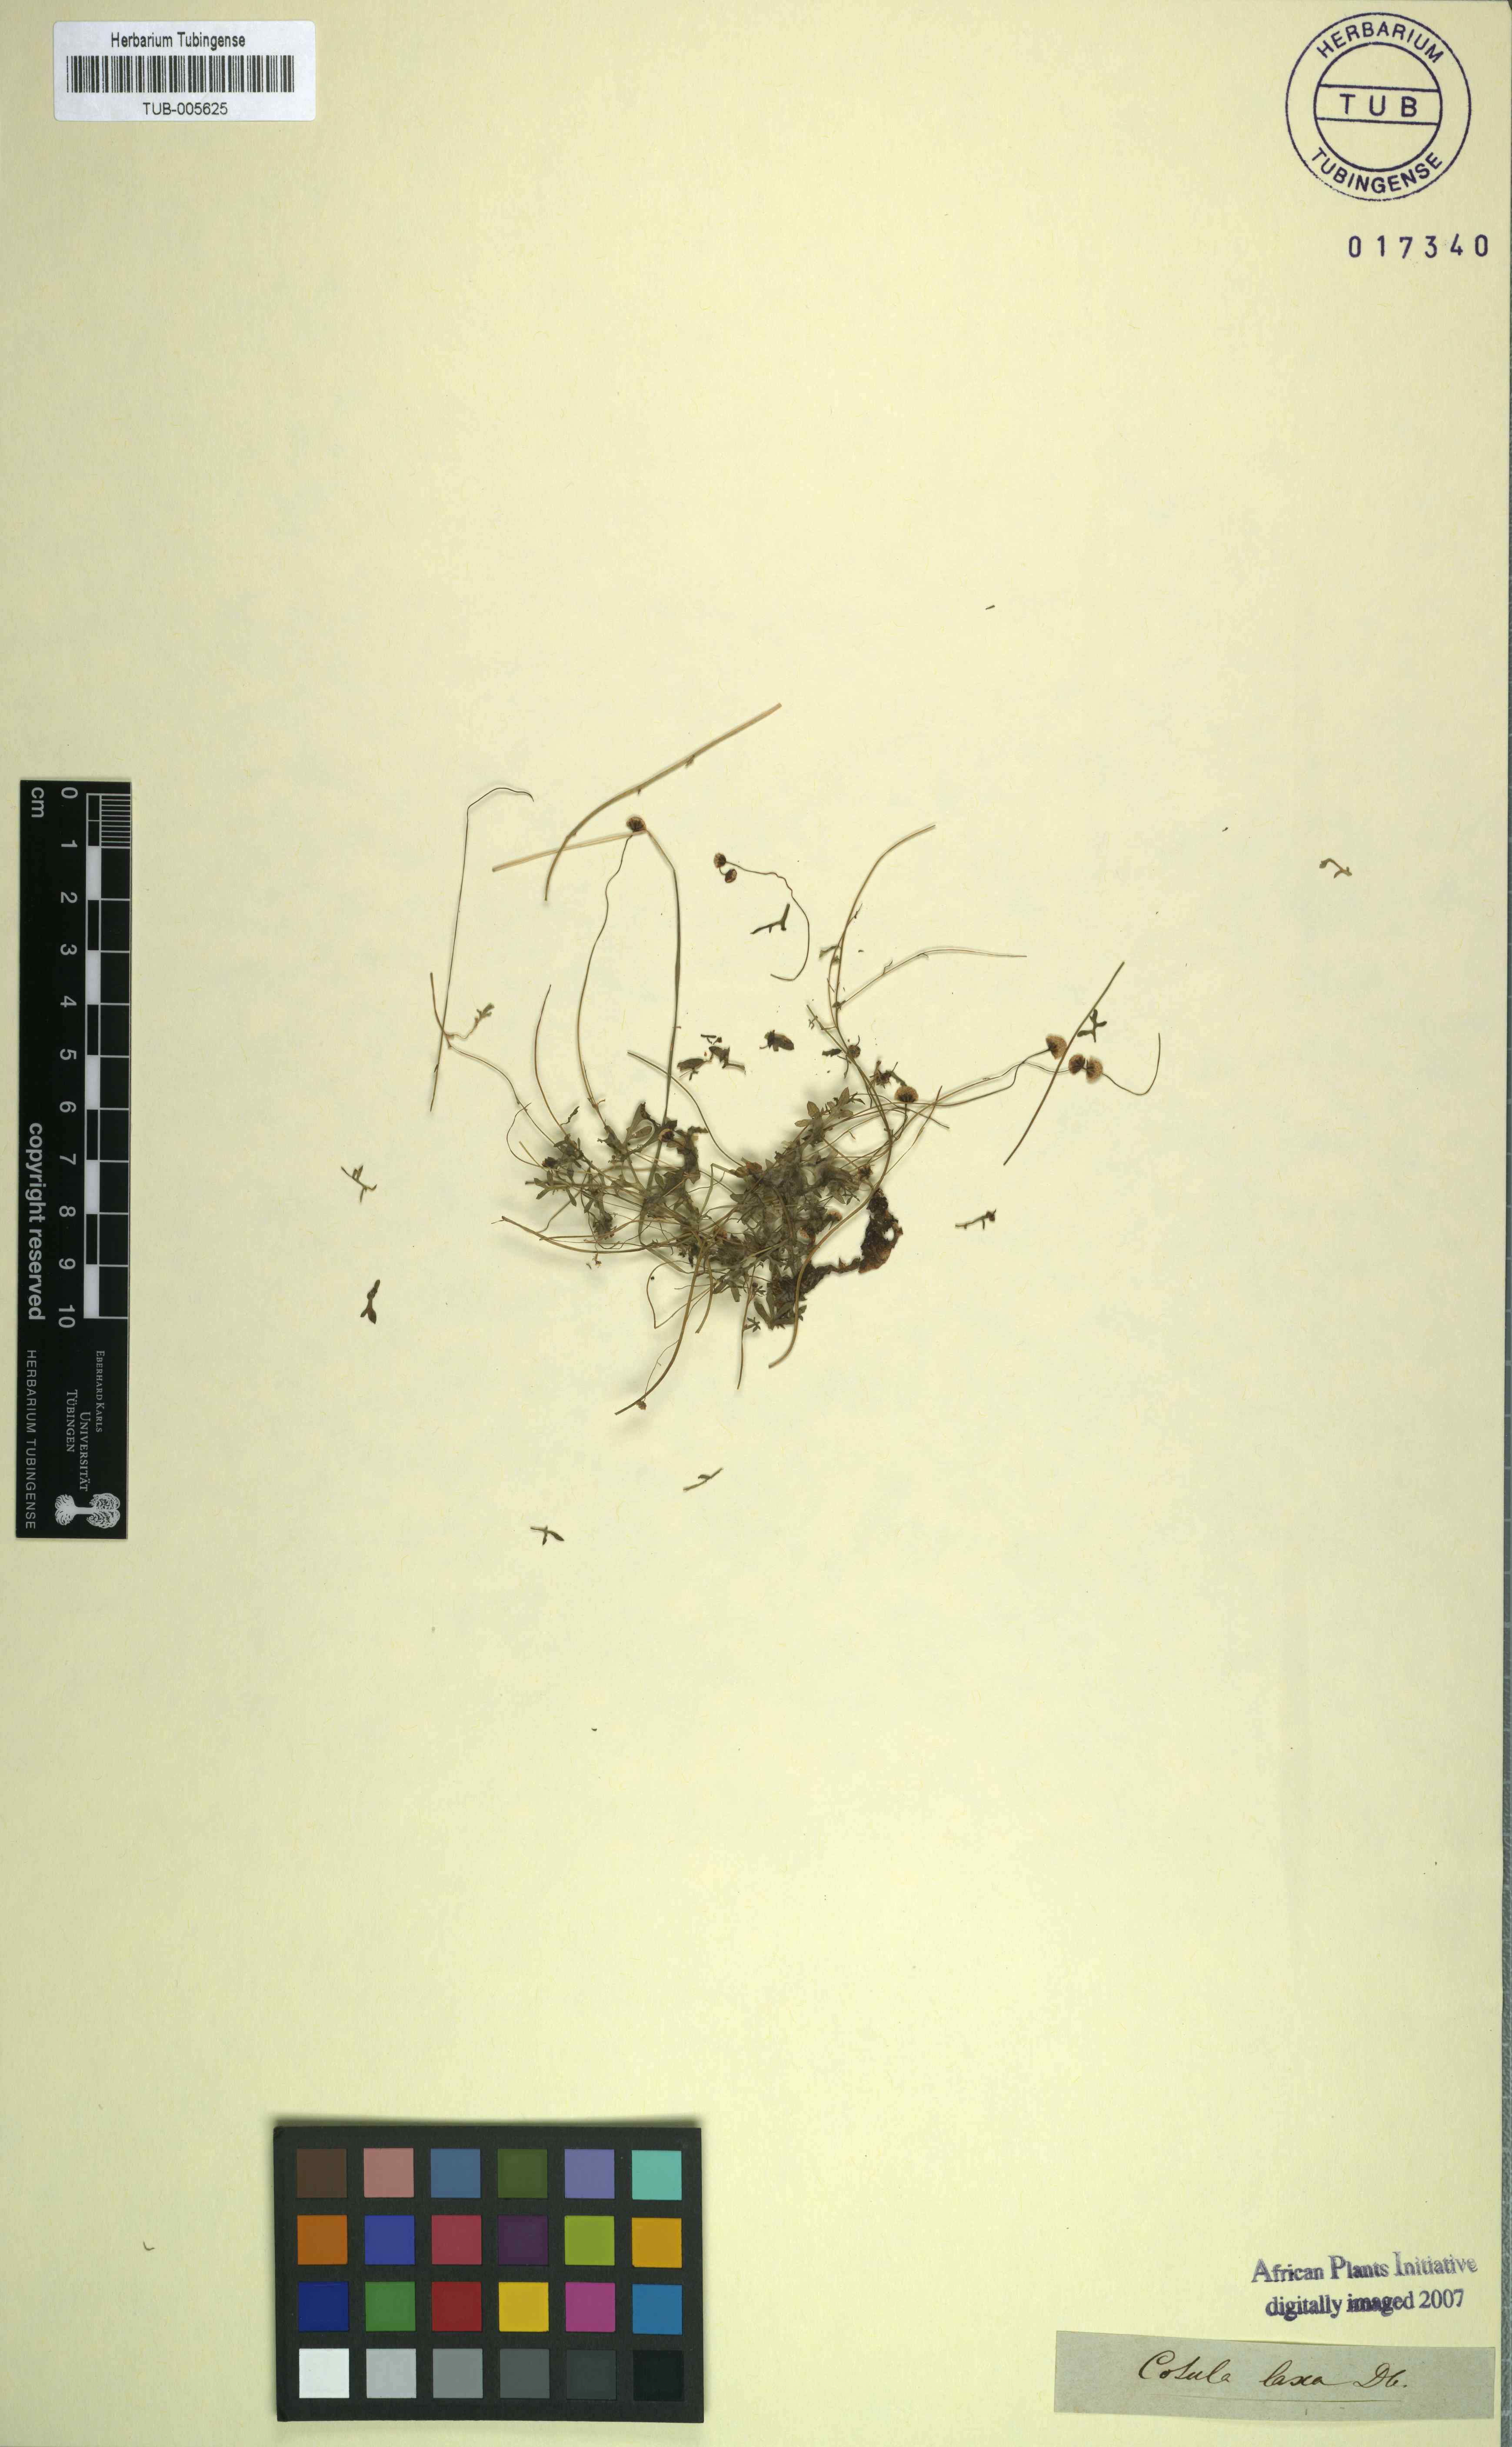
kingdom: Plantae
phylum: Tracheophyta
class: Magnoliopsida
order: Asterales
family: Asteraceae
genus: Cotula
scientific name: Cotula laxa
